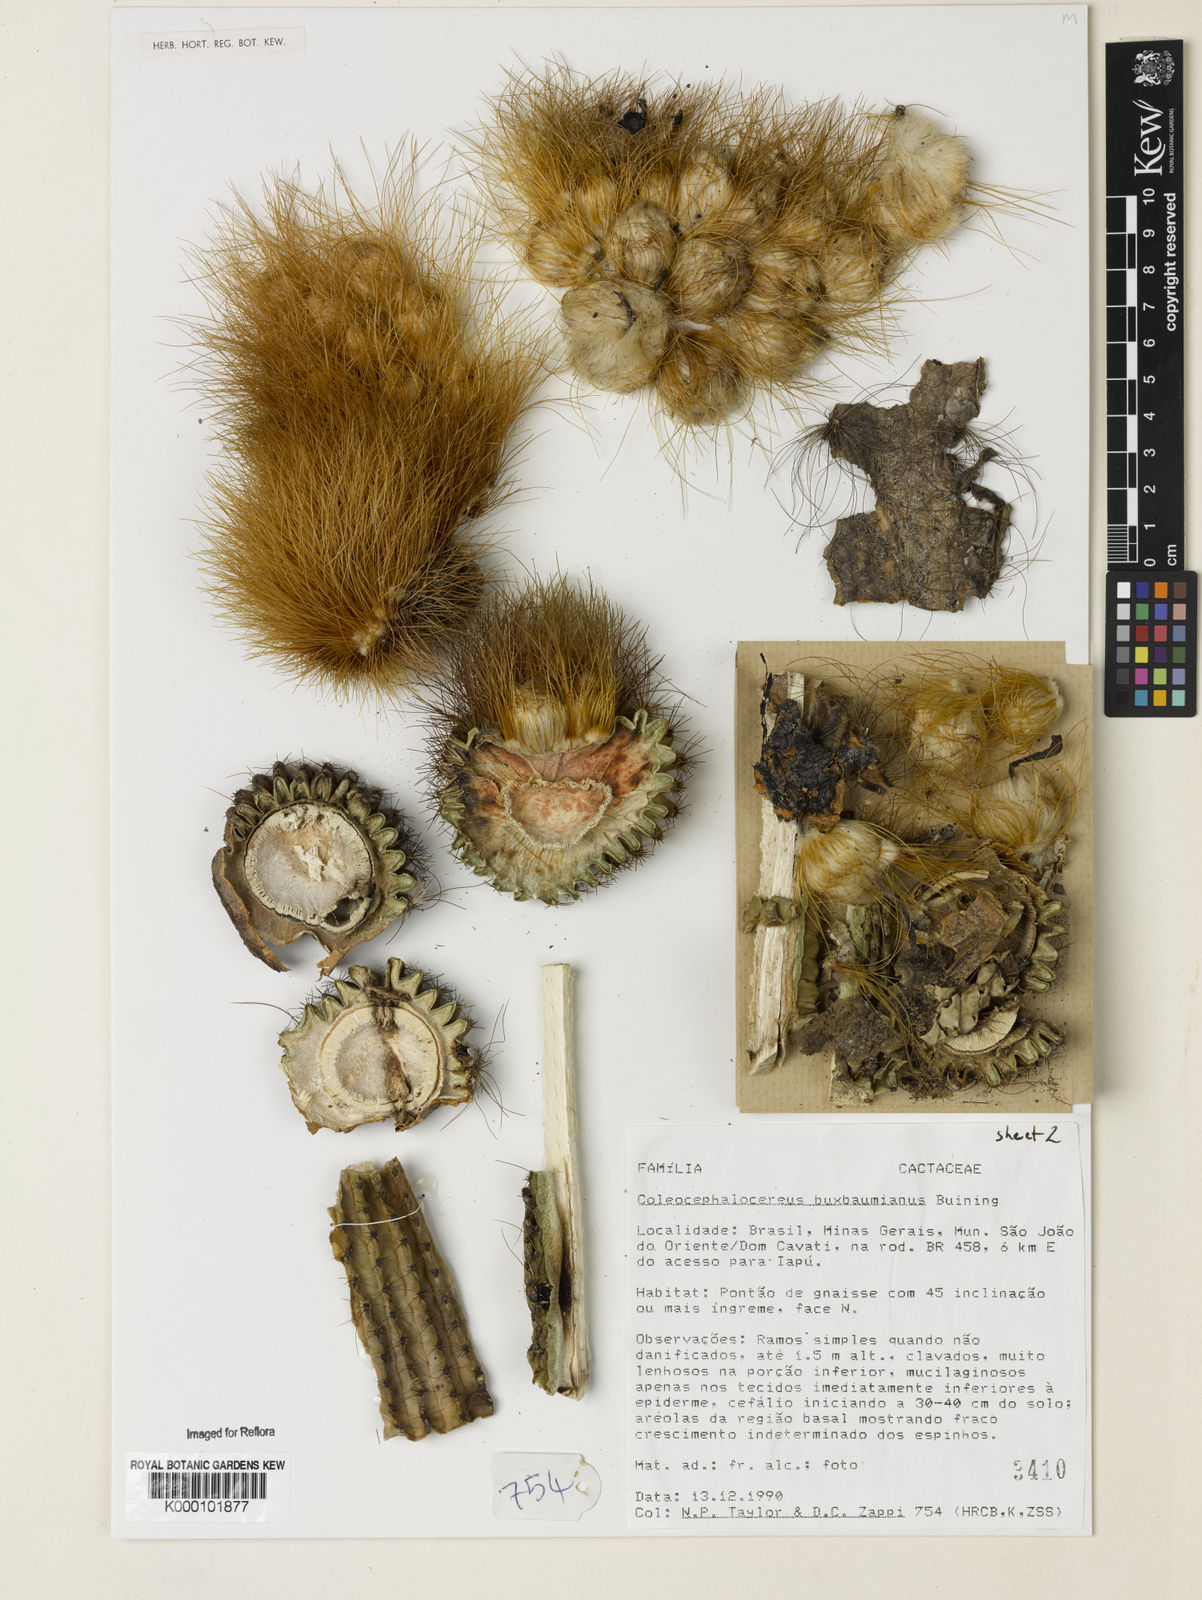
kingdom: Plantae
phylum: Tracheophyta
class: Magnoliopsida
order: Caryophyllales
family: Cactaceae
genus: Coleocephalocereus
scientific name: Coleocephalocereus buxbaumianus
